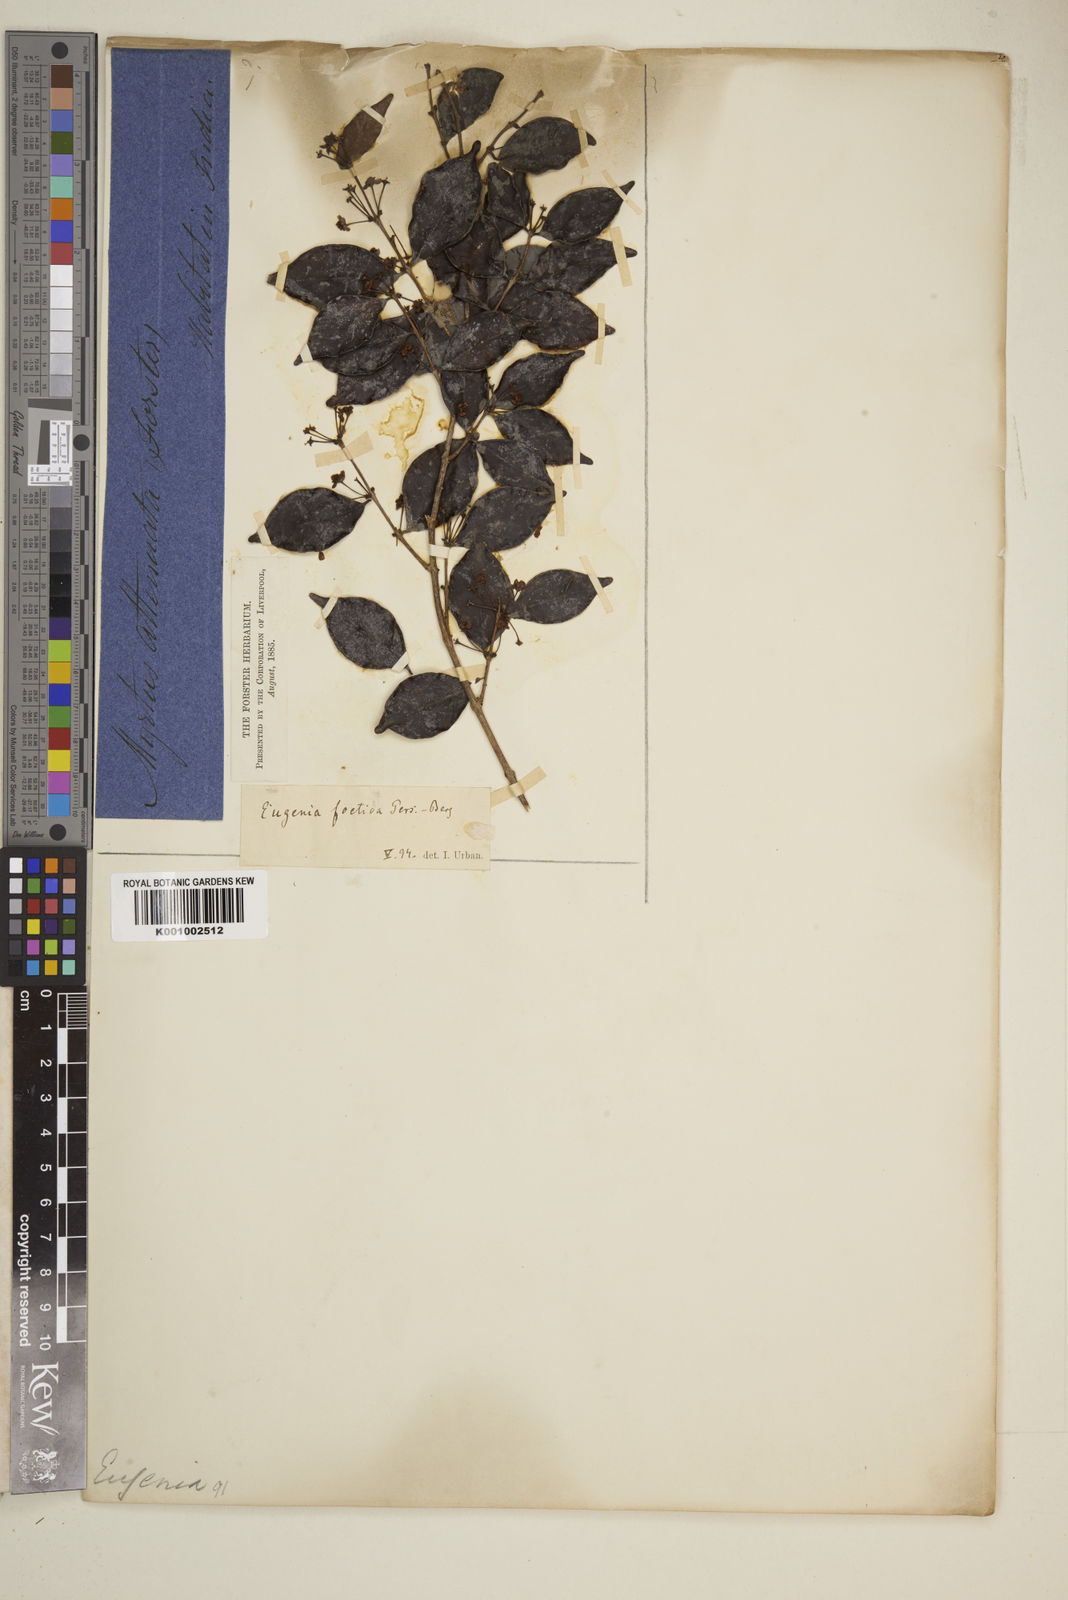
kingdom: Plantae
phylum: Tracheophyta
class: Magnoliopsida
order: Myrtales
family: Myrtaceae
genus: Eugenia
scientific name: Eugenia foetida
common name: White wattling
